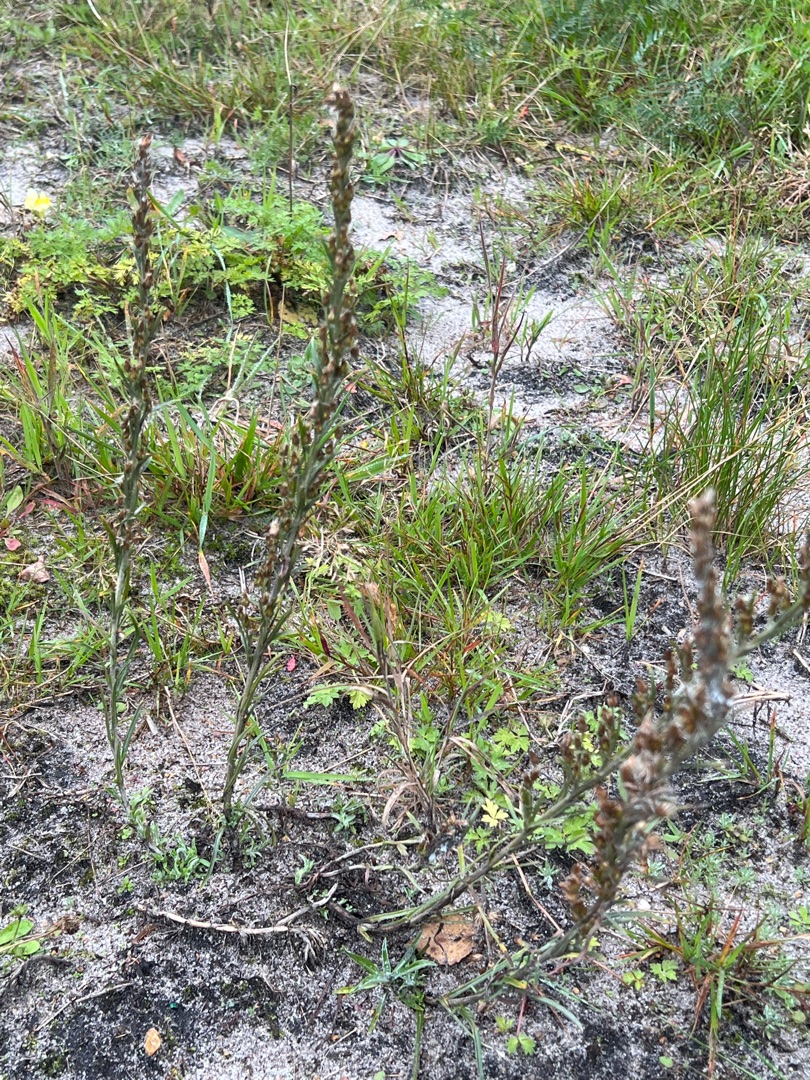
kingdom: Plantae
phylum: Tracheophyta
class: Magnoliopsida
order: Asterales
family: Asteraceae
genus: Omalotheca
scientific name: Omalotheca sylvatica
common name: Rank evighedsblomst
